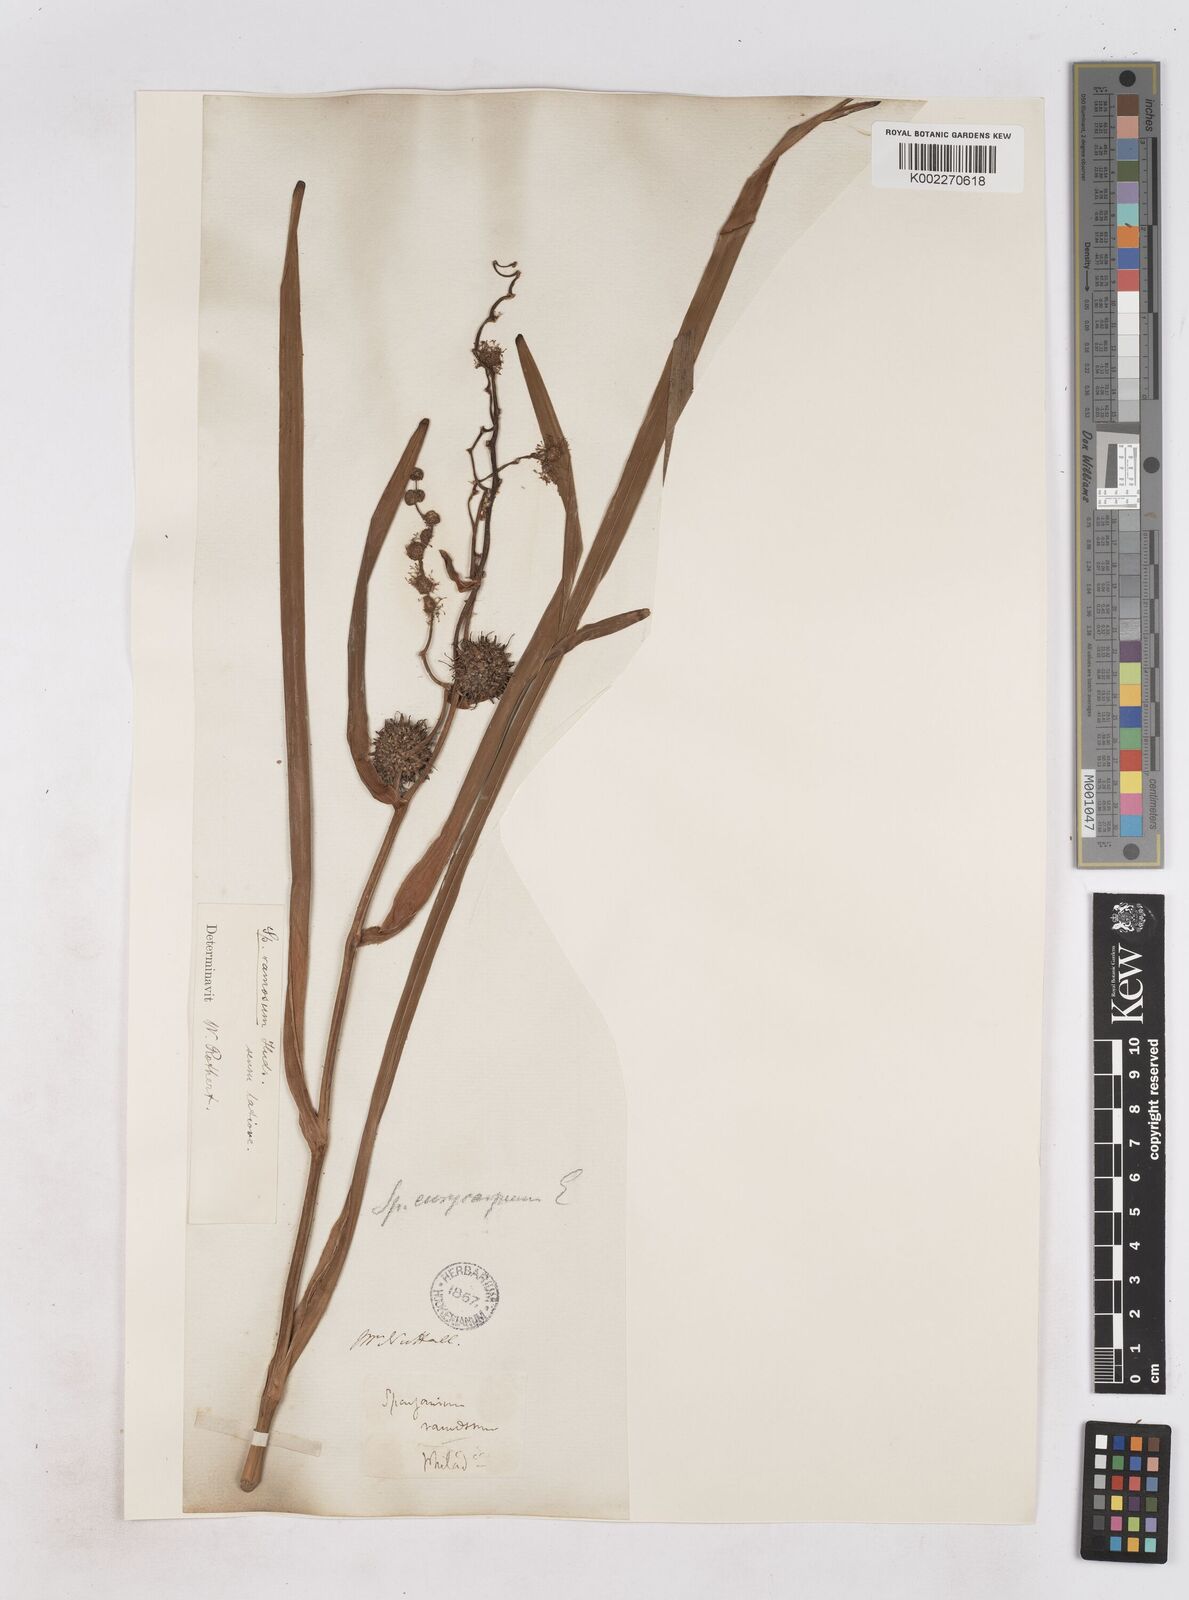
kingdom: Plantae
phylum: Tracheophyta
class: Liliopsida
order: Poales
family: Typhaceae
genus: Sparganium
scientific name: Sparganium eurycarpum
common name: Broad-fruited burreed
